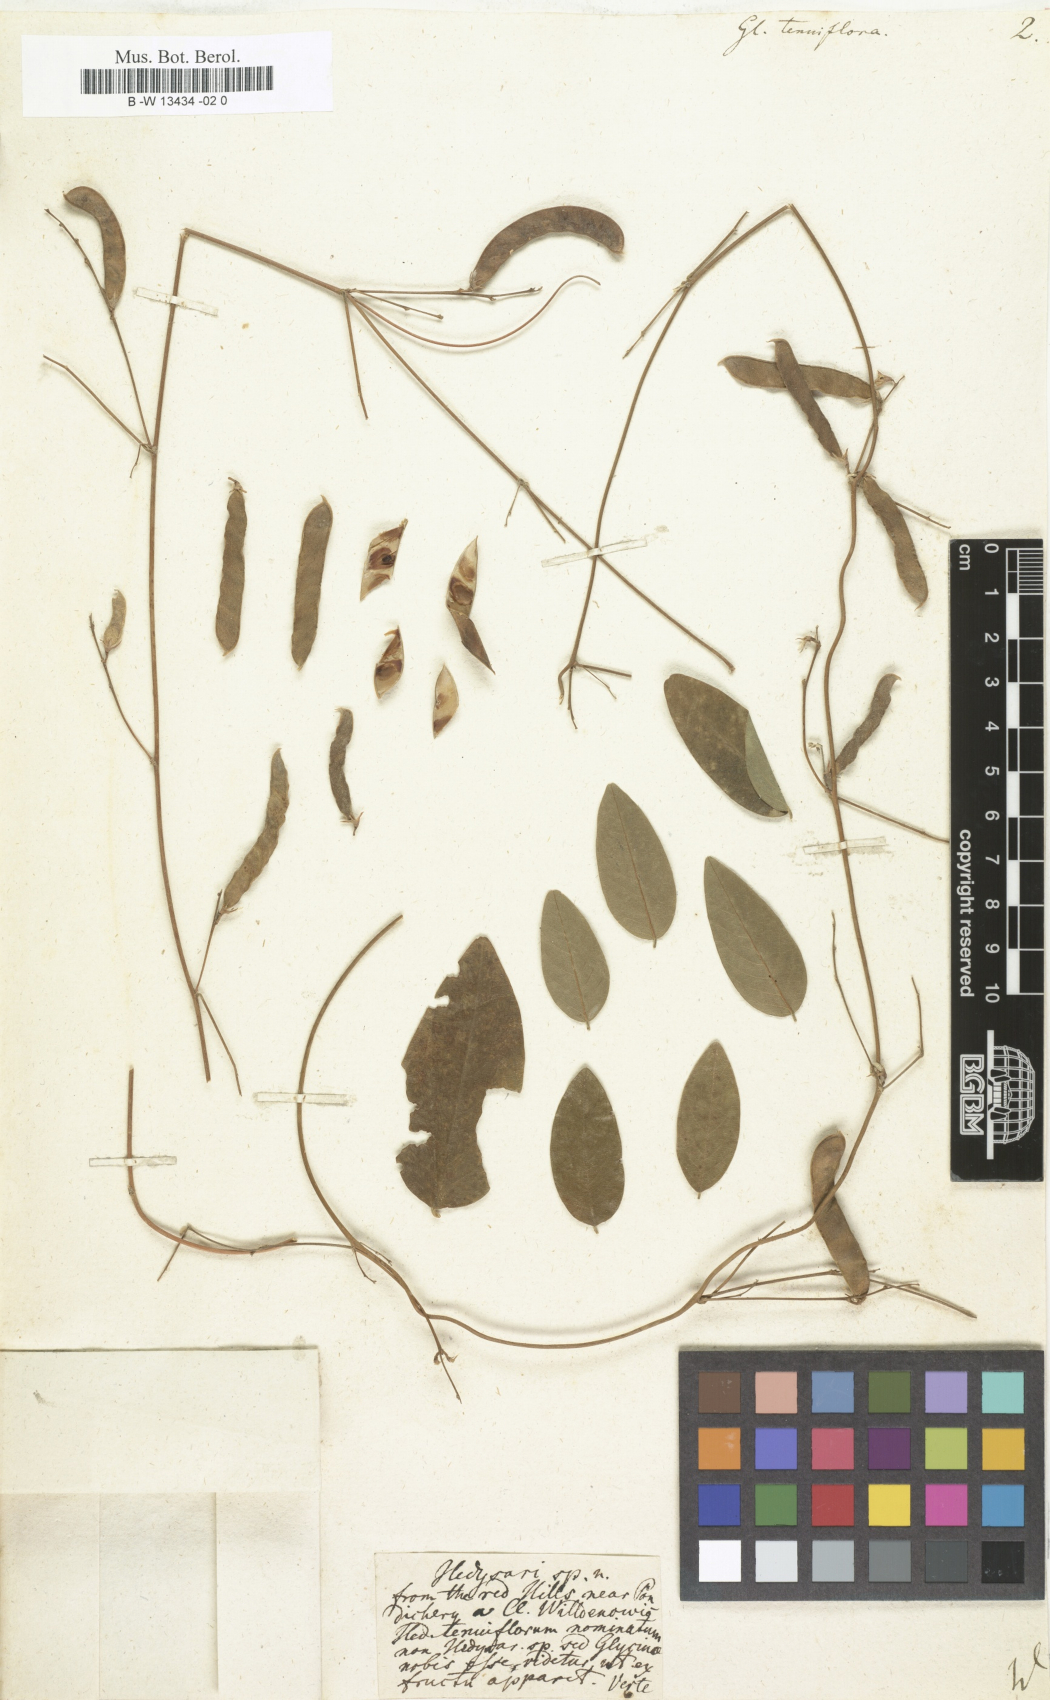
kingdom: Plantae
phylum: Tracheophyta
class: Magnoliopsida
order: Fabales
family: Fabaceae
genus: Galactia
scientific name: Galactia striata
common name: Florida hammock milkpea
